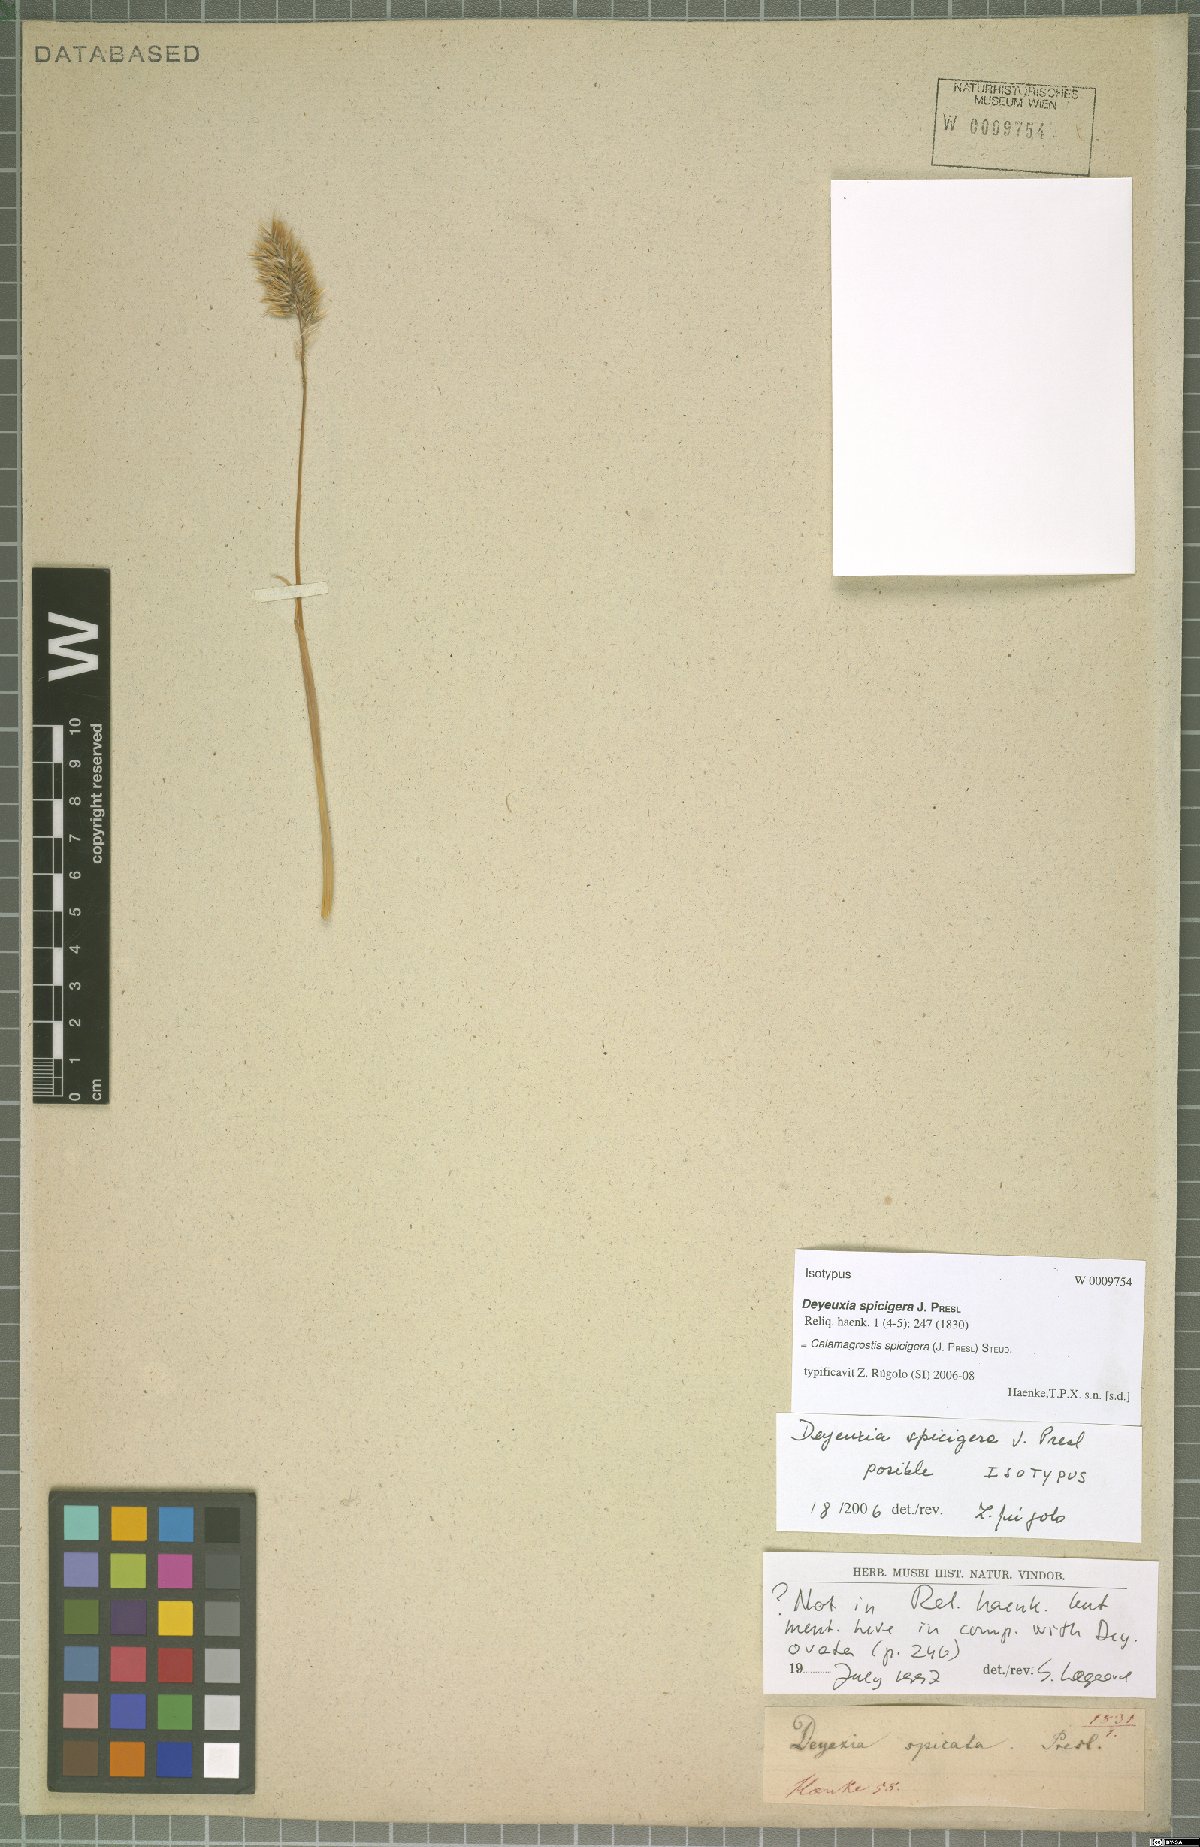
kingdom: Plantae
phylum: Tracheophyta
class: Liliopsida
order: Poales
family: Poaceae
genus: Cinnagrostis
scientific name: Cinnagrostis spicigera
